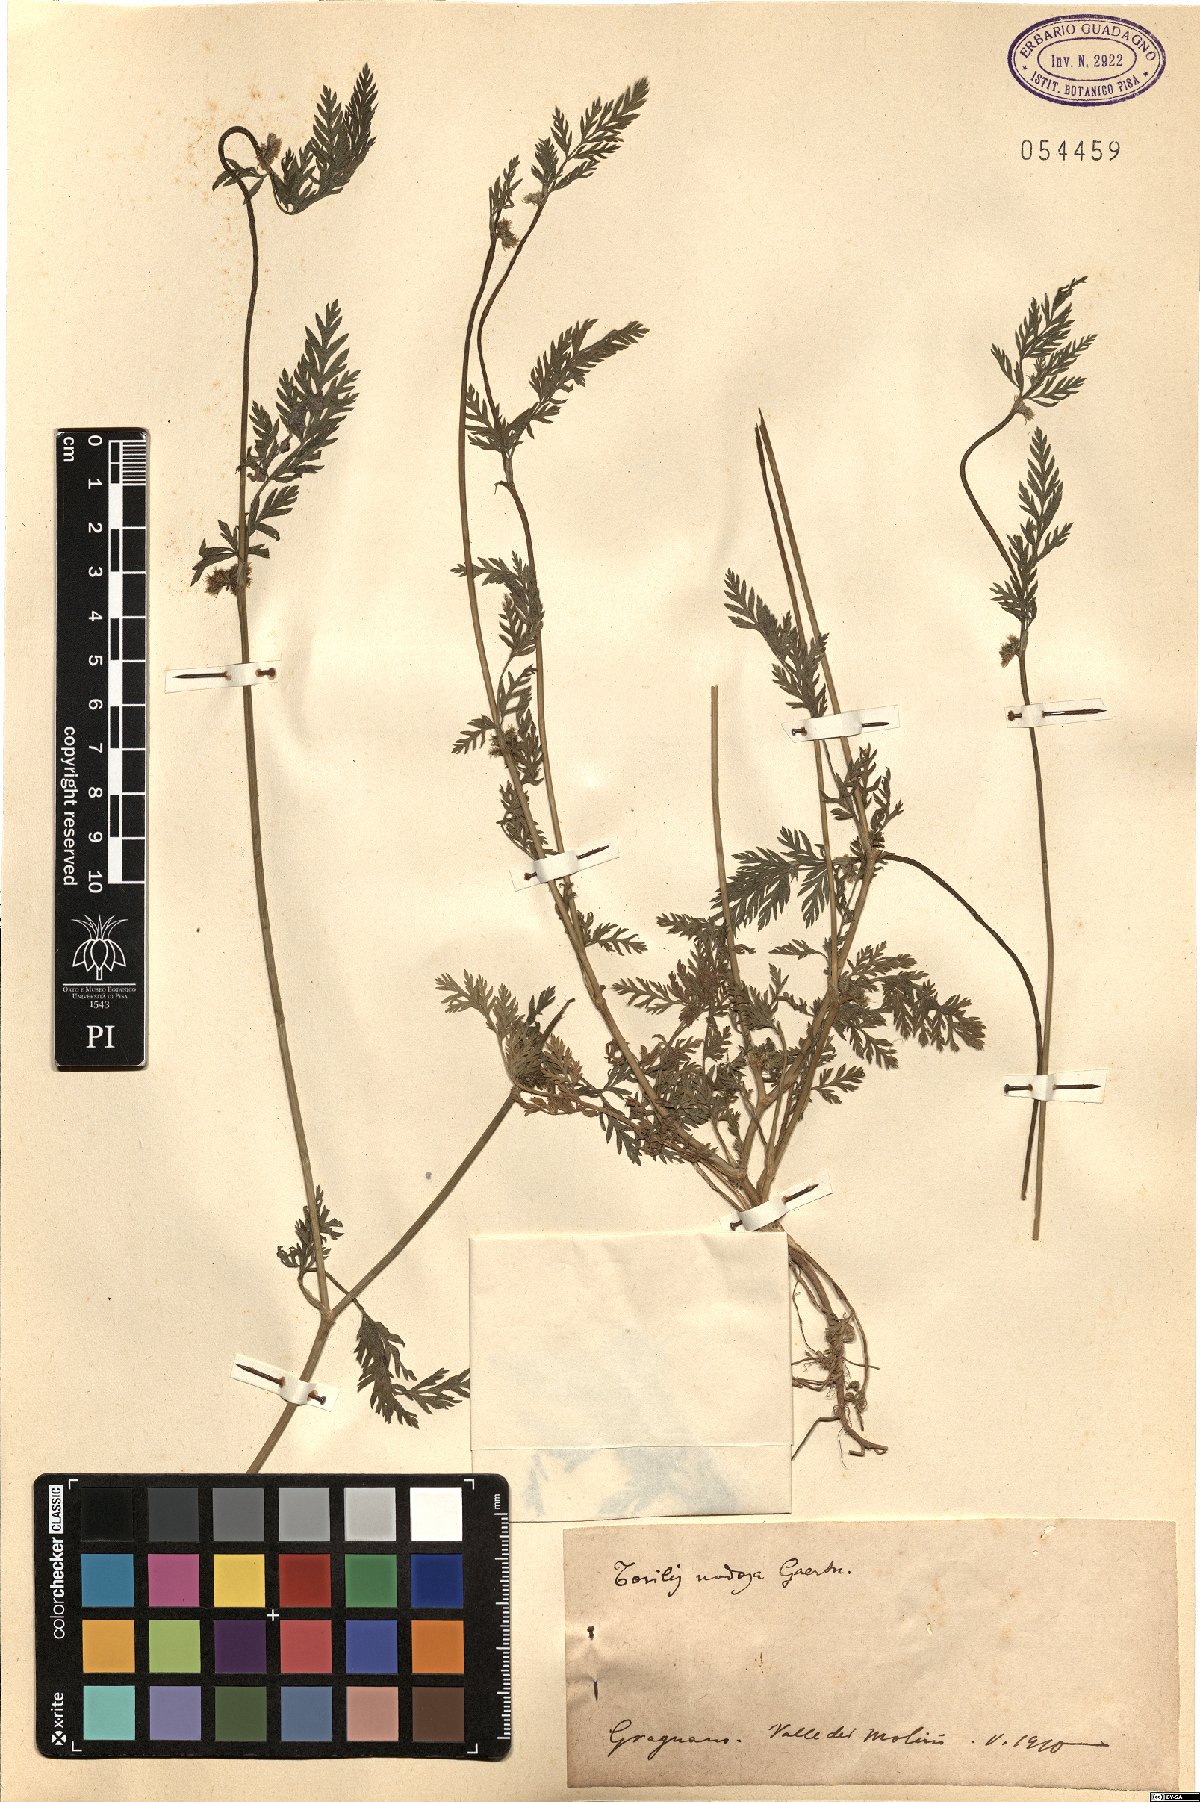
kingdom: Plantae
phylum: Tracheophyta
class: Magnoliopsida
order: Apiales
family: Apiaceae
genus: Torilis
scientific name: Torilis nodosa
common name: Knotted hedge-parsley
